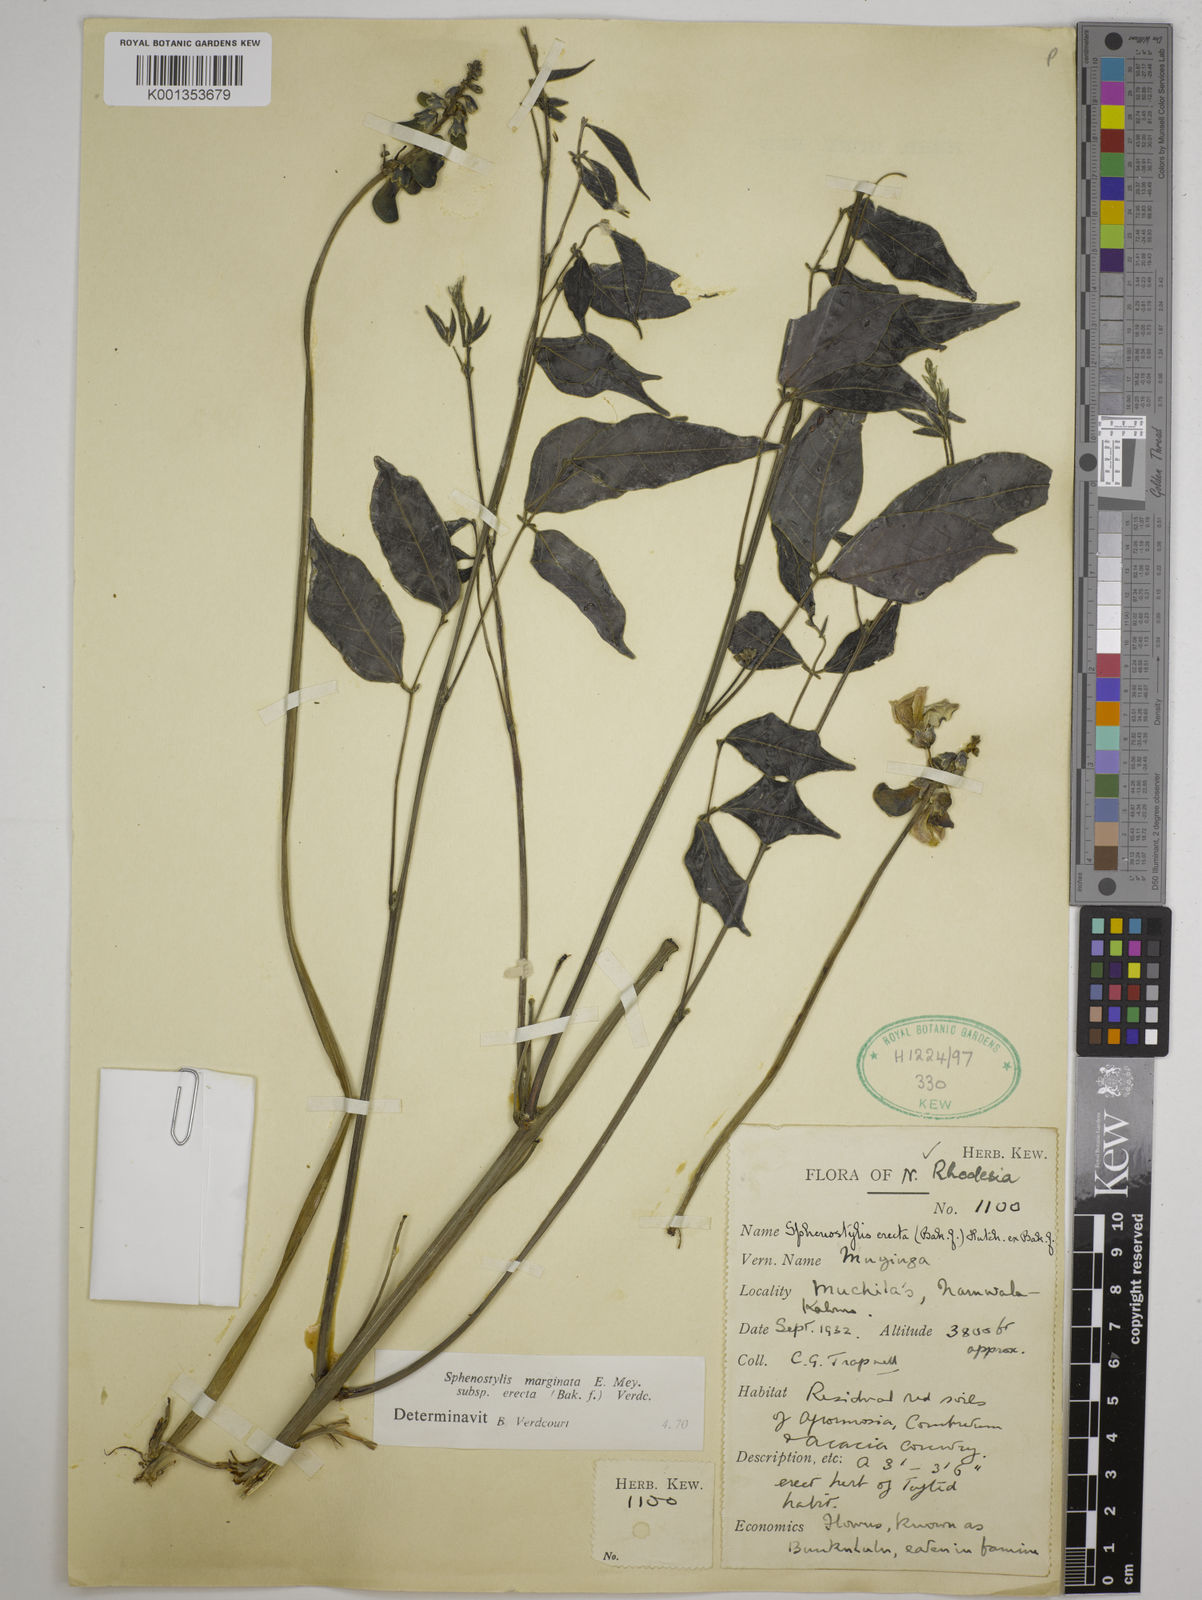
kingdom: Plantae
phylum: Tracheophyta
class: Magnoliopsida
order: Fabales
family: Fabaceae
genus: Sphenostylis
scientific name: Sphenostylis erecta
